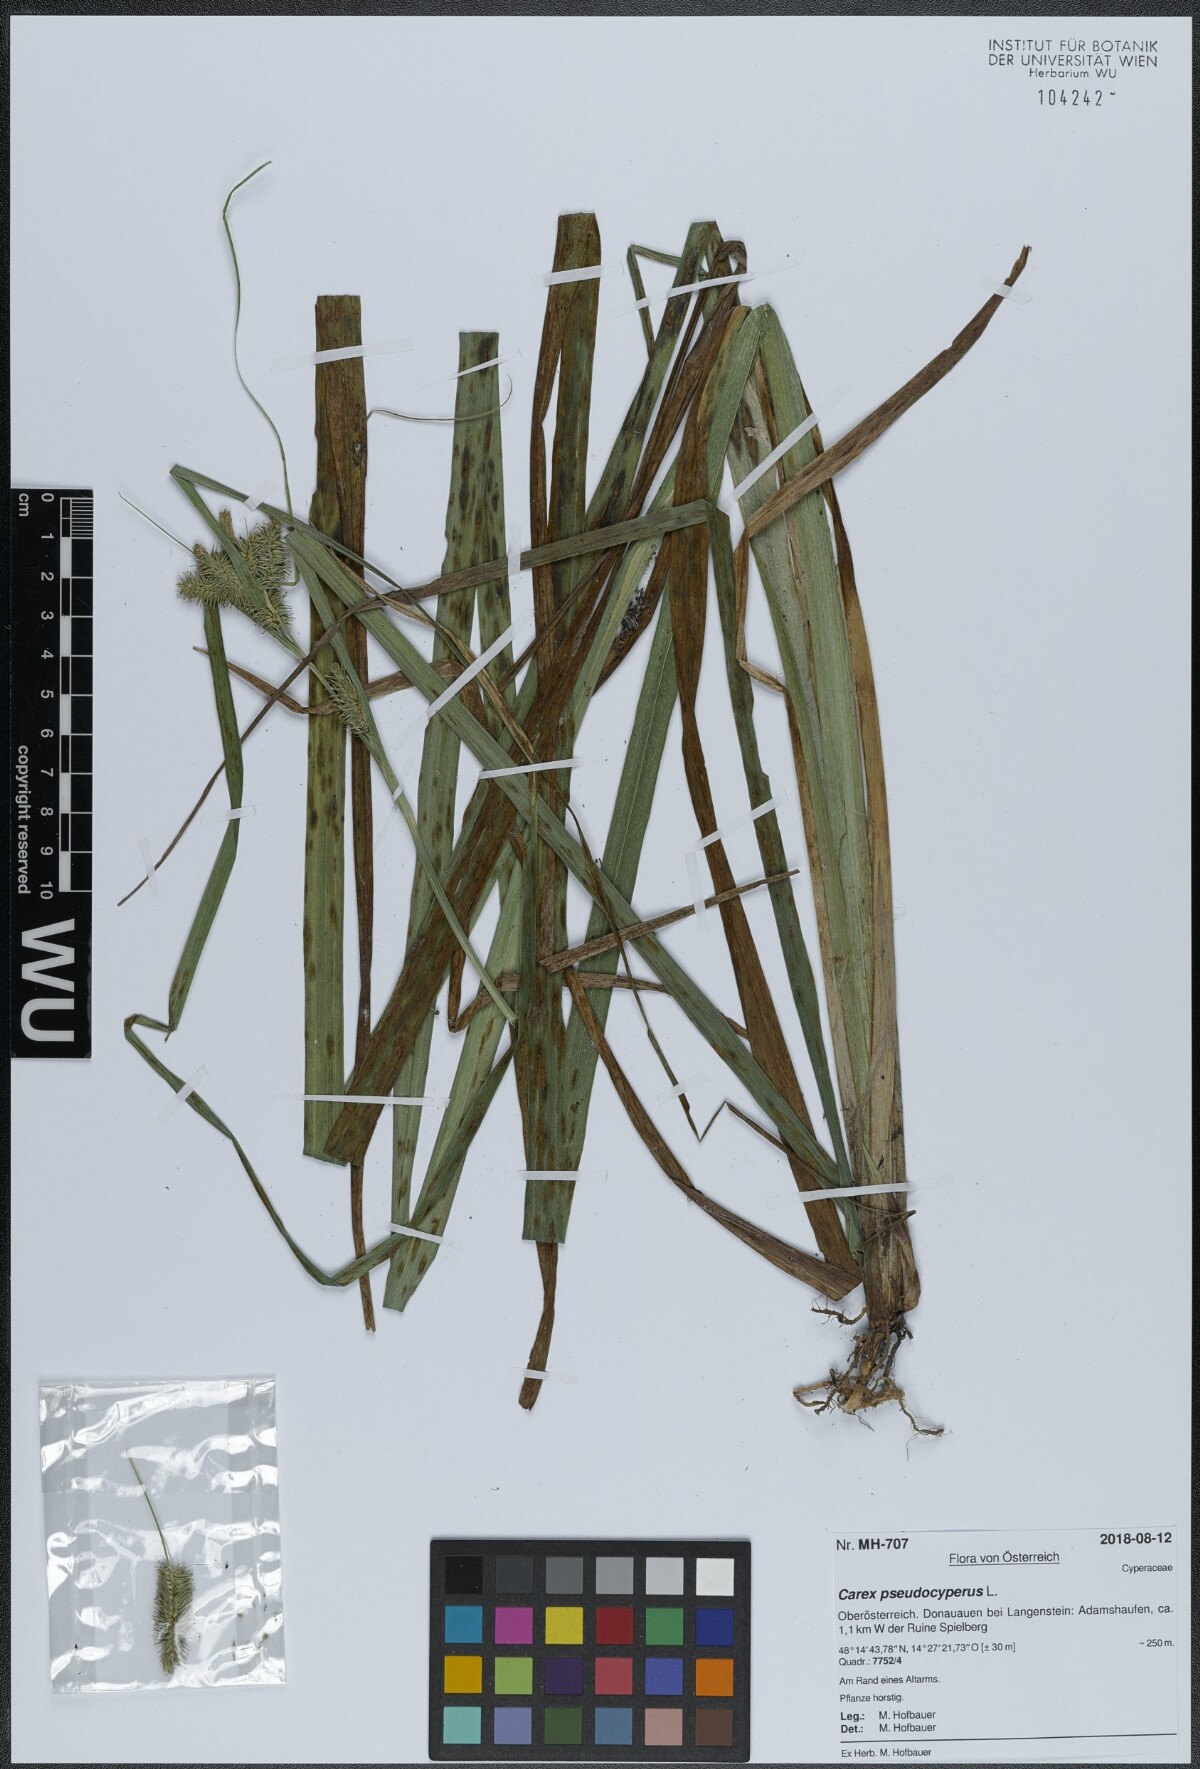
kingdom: Plantae
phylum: Tracheophyta
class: Liliopsida
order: Poales
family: Cyperaceae
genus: Carex
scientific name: Carex pseudocyperus
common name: Cyperus sedge
